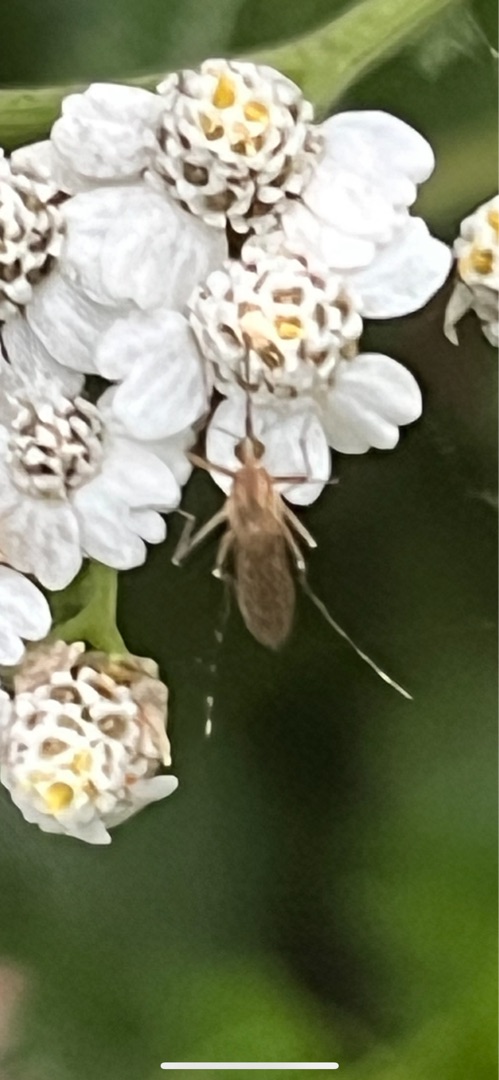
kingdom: Animalia
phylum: Arthropoda
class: Insecta
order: Diptera
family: Culicidae
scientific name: Culicidae
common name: Stikmyg
